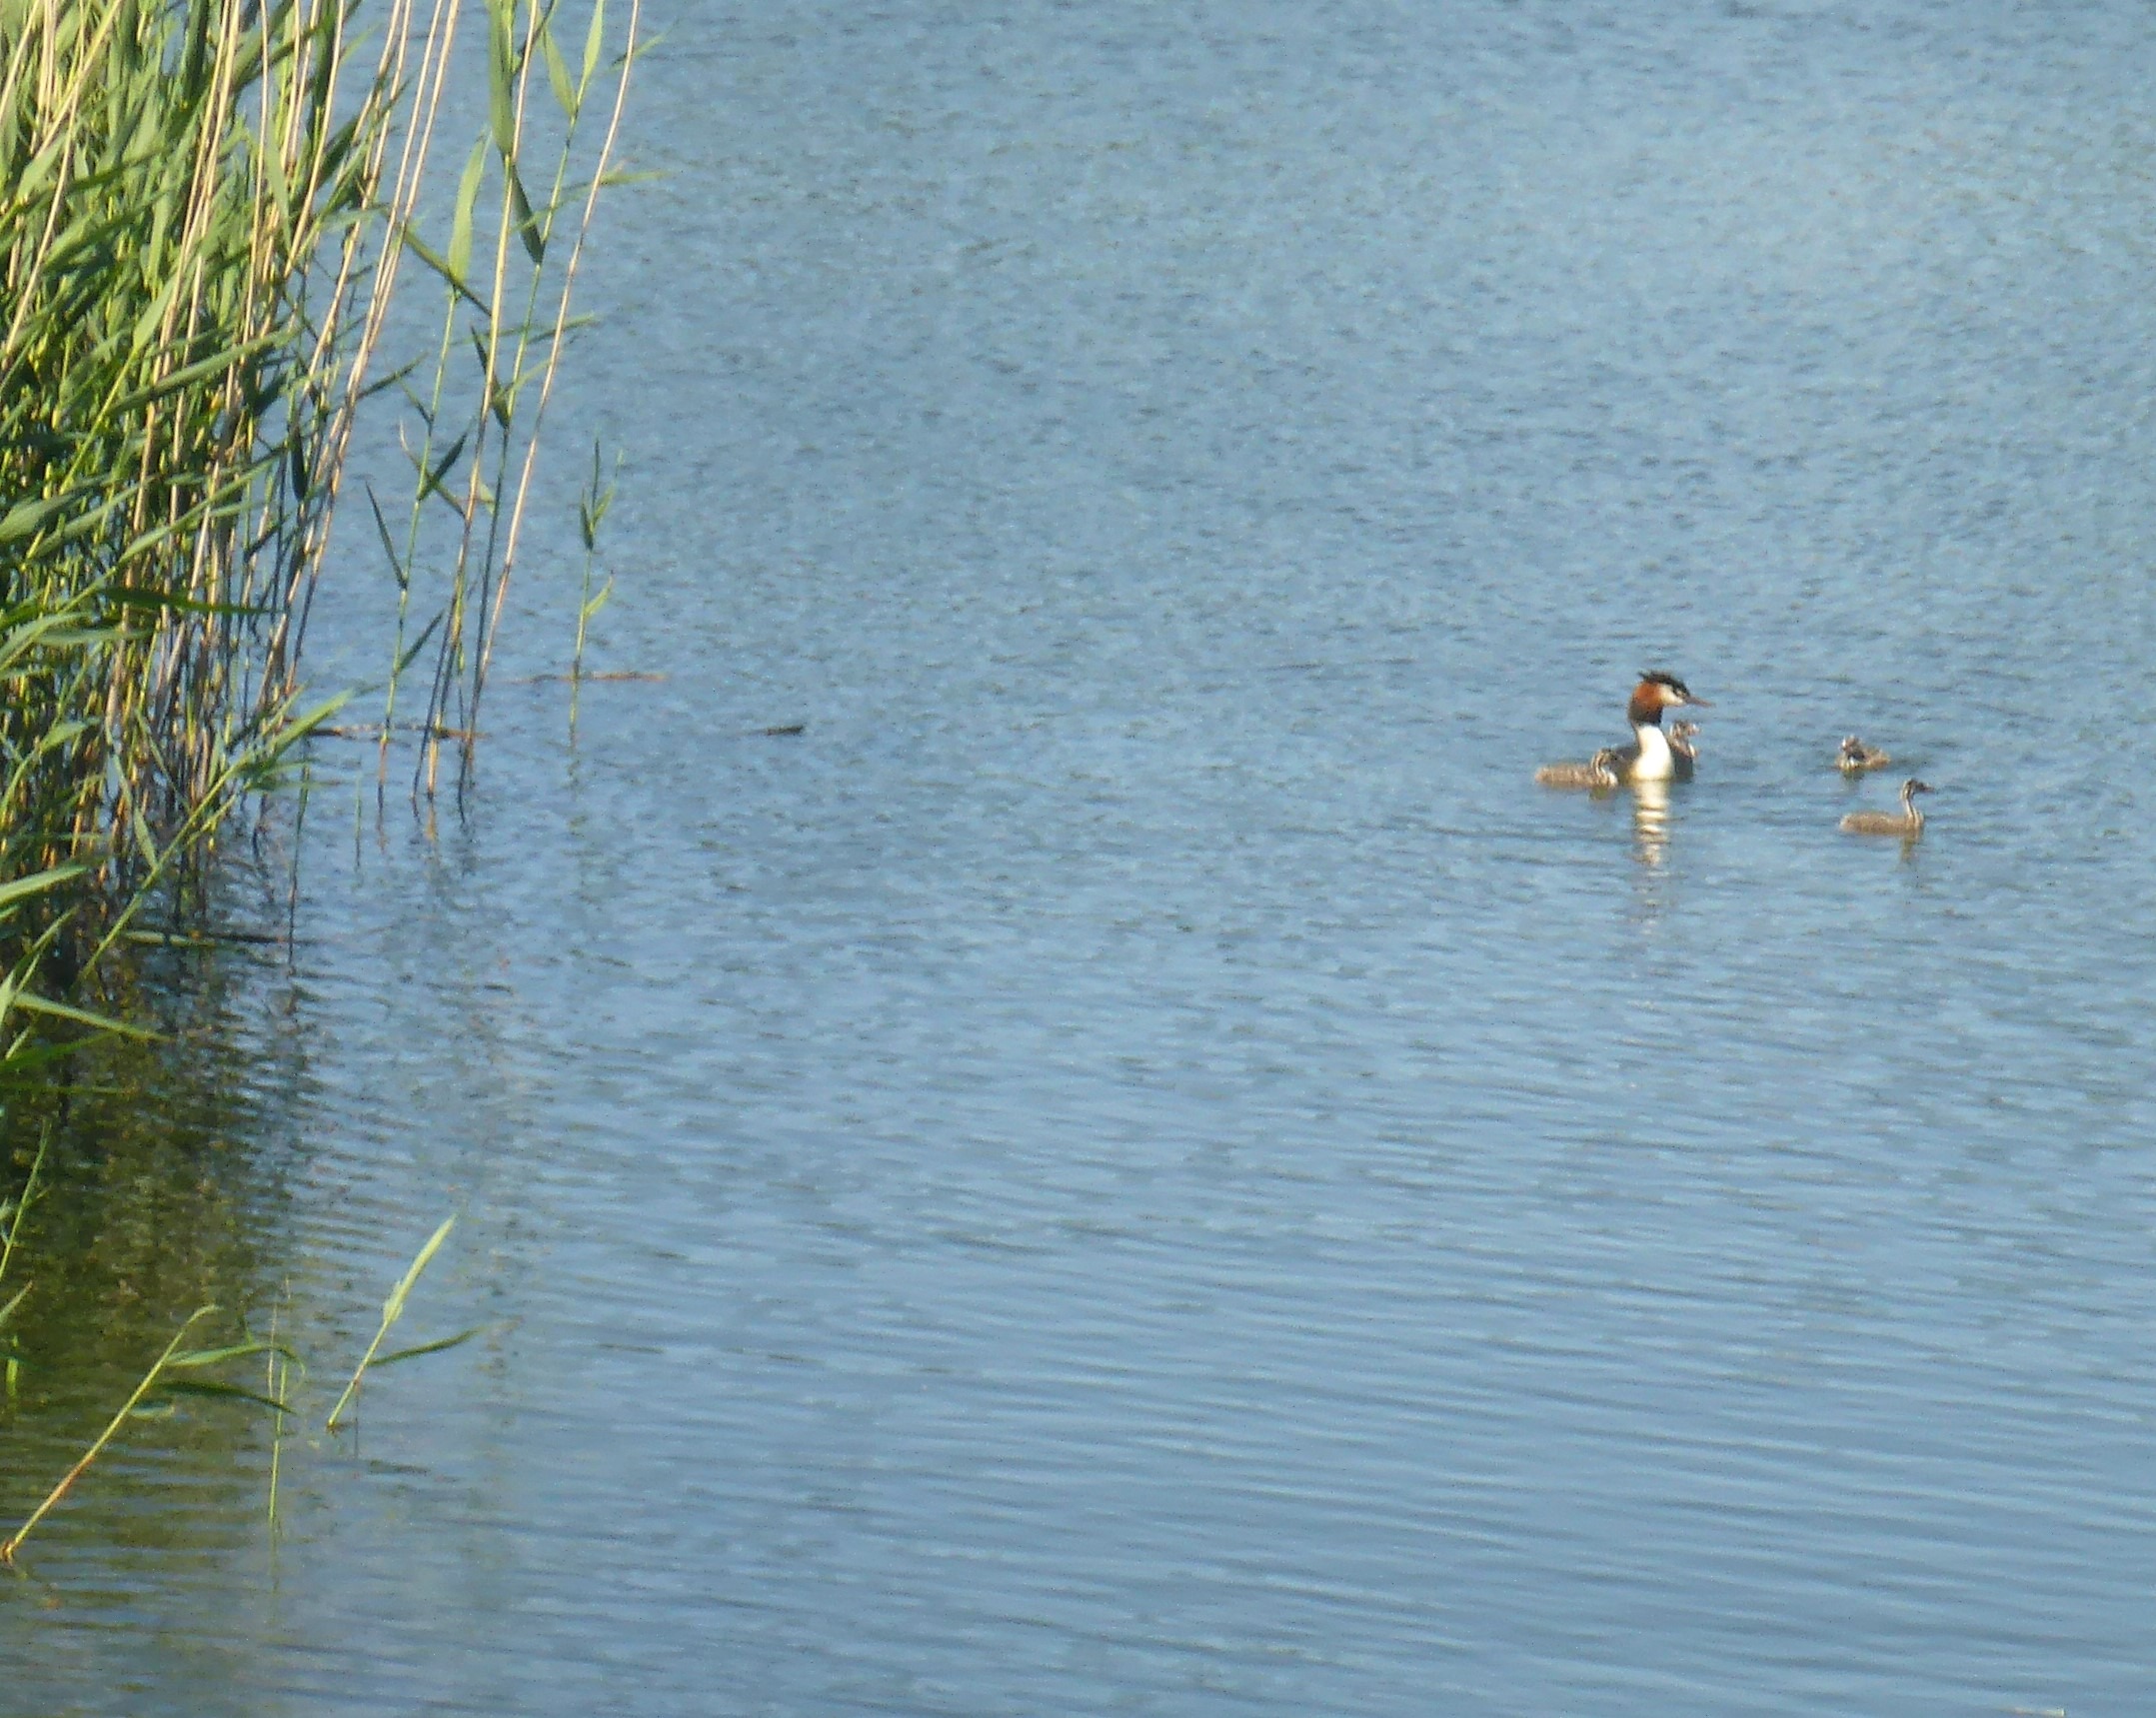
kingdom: Animalia
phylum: Chordata
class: Aves
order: Podicipediformes
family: Podicipedidae
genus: Podiceps
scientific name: Podiceps cristatus
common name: Toppet lappedykker
